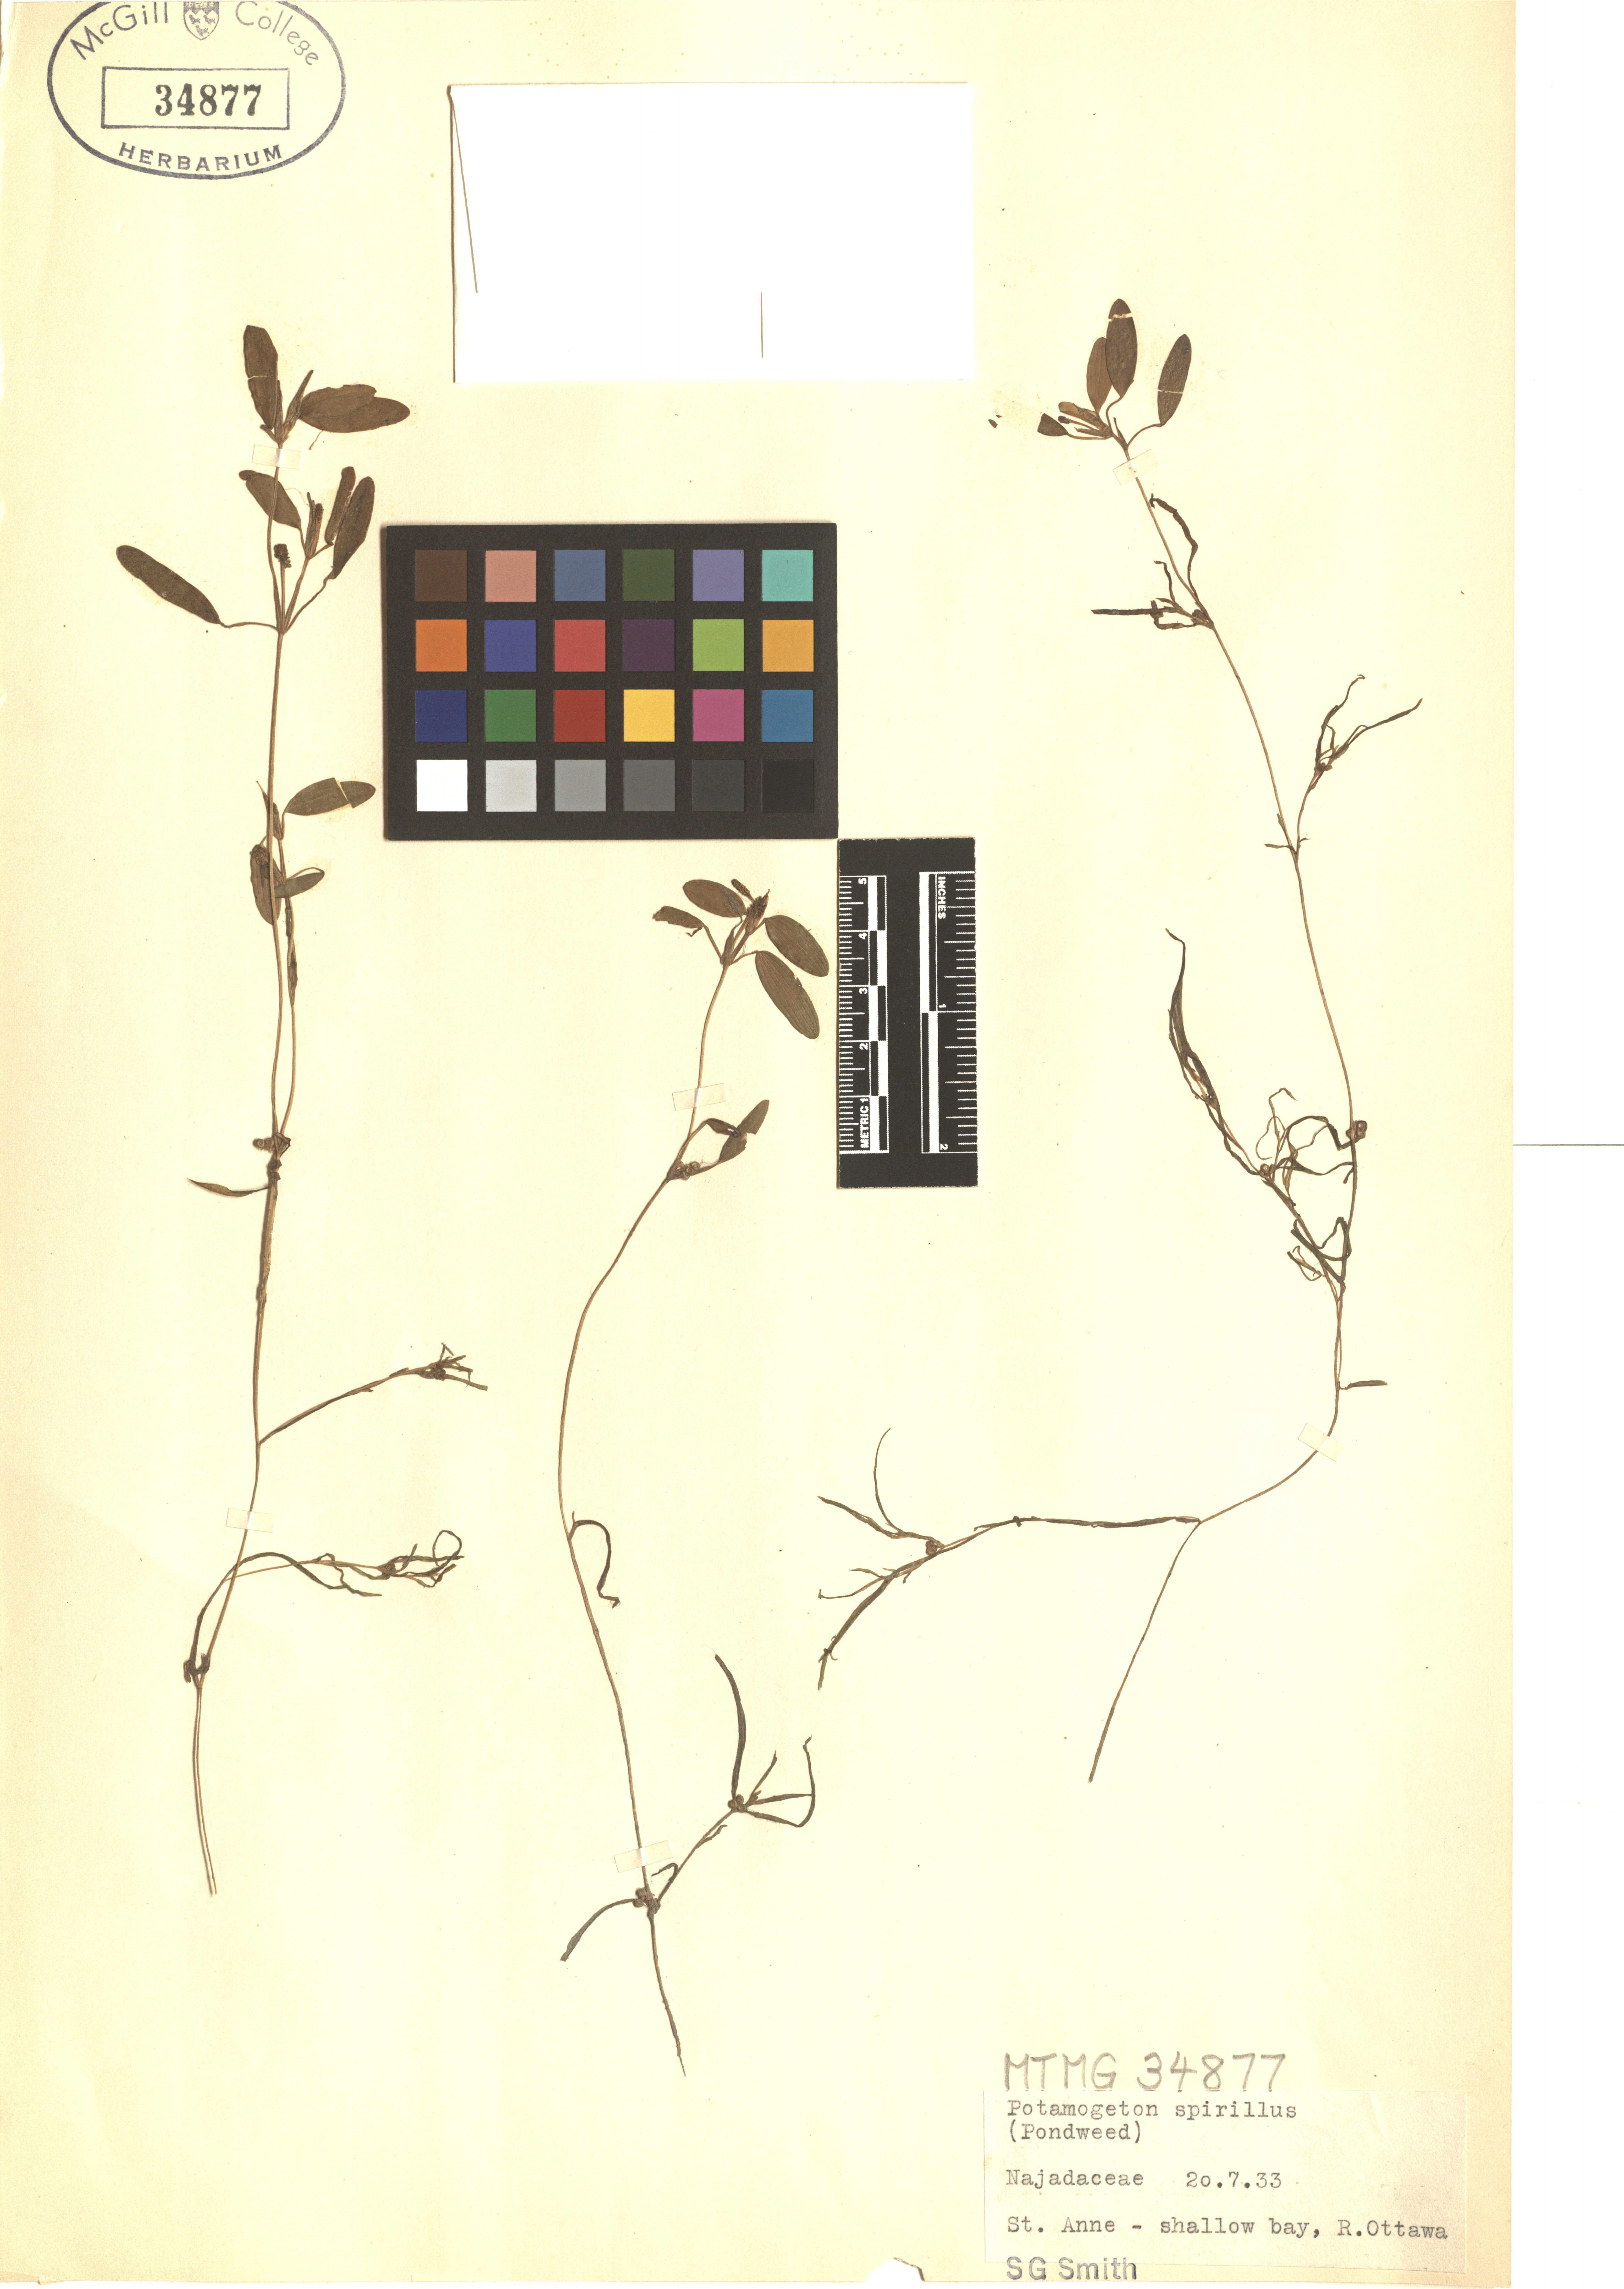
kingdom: Plantae
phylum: Tracheophyta
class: Liliopsida
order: Alismatales
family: Potamogetonaceae
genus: Potamogeton
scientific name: Potamogeton spirillus
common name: Northern snail-seed pondweed
